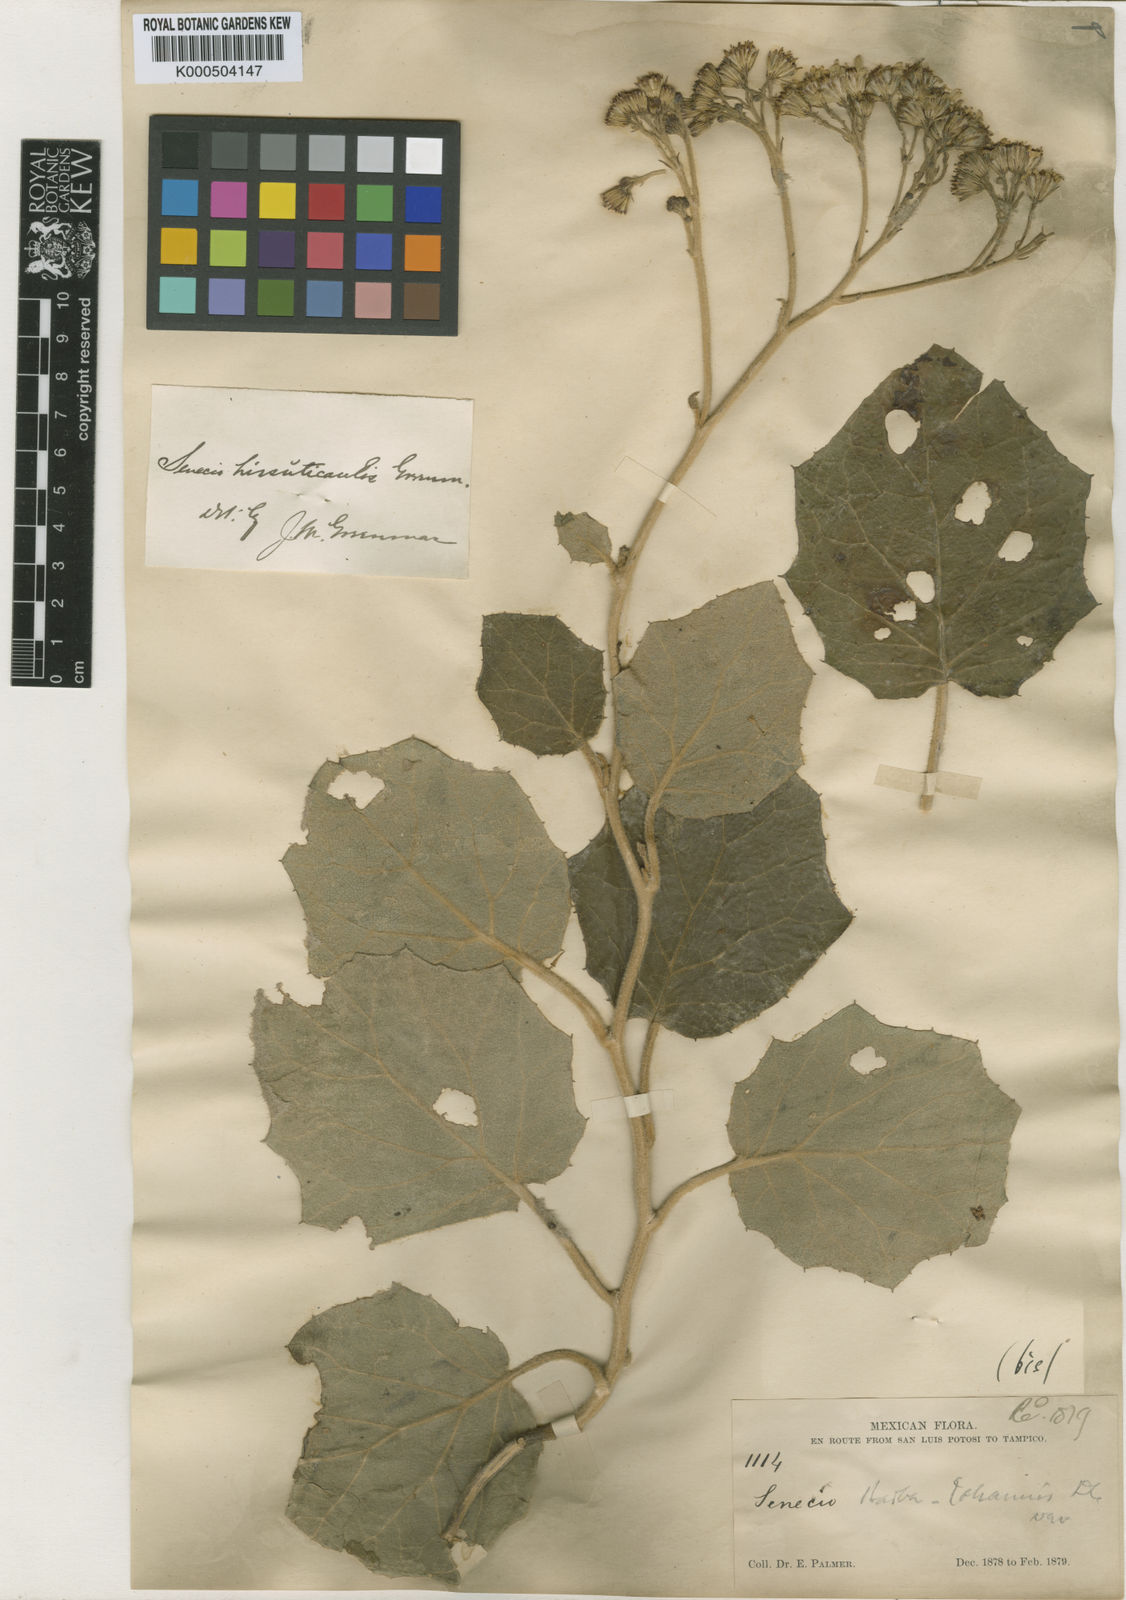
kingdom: Plantae
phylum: Tracheophyta
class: Magnoliopsida
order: Asterales
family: Asteraceae
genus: Roldana
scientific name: Roldana hirsuticaulis
